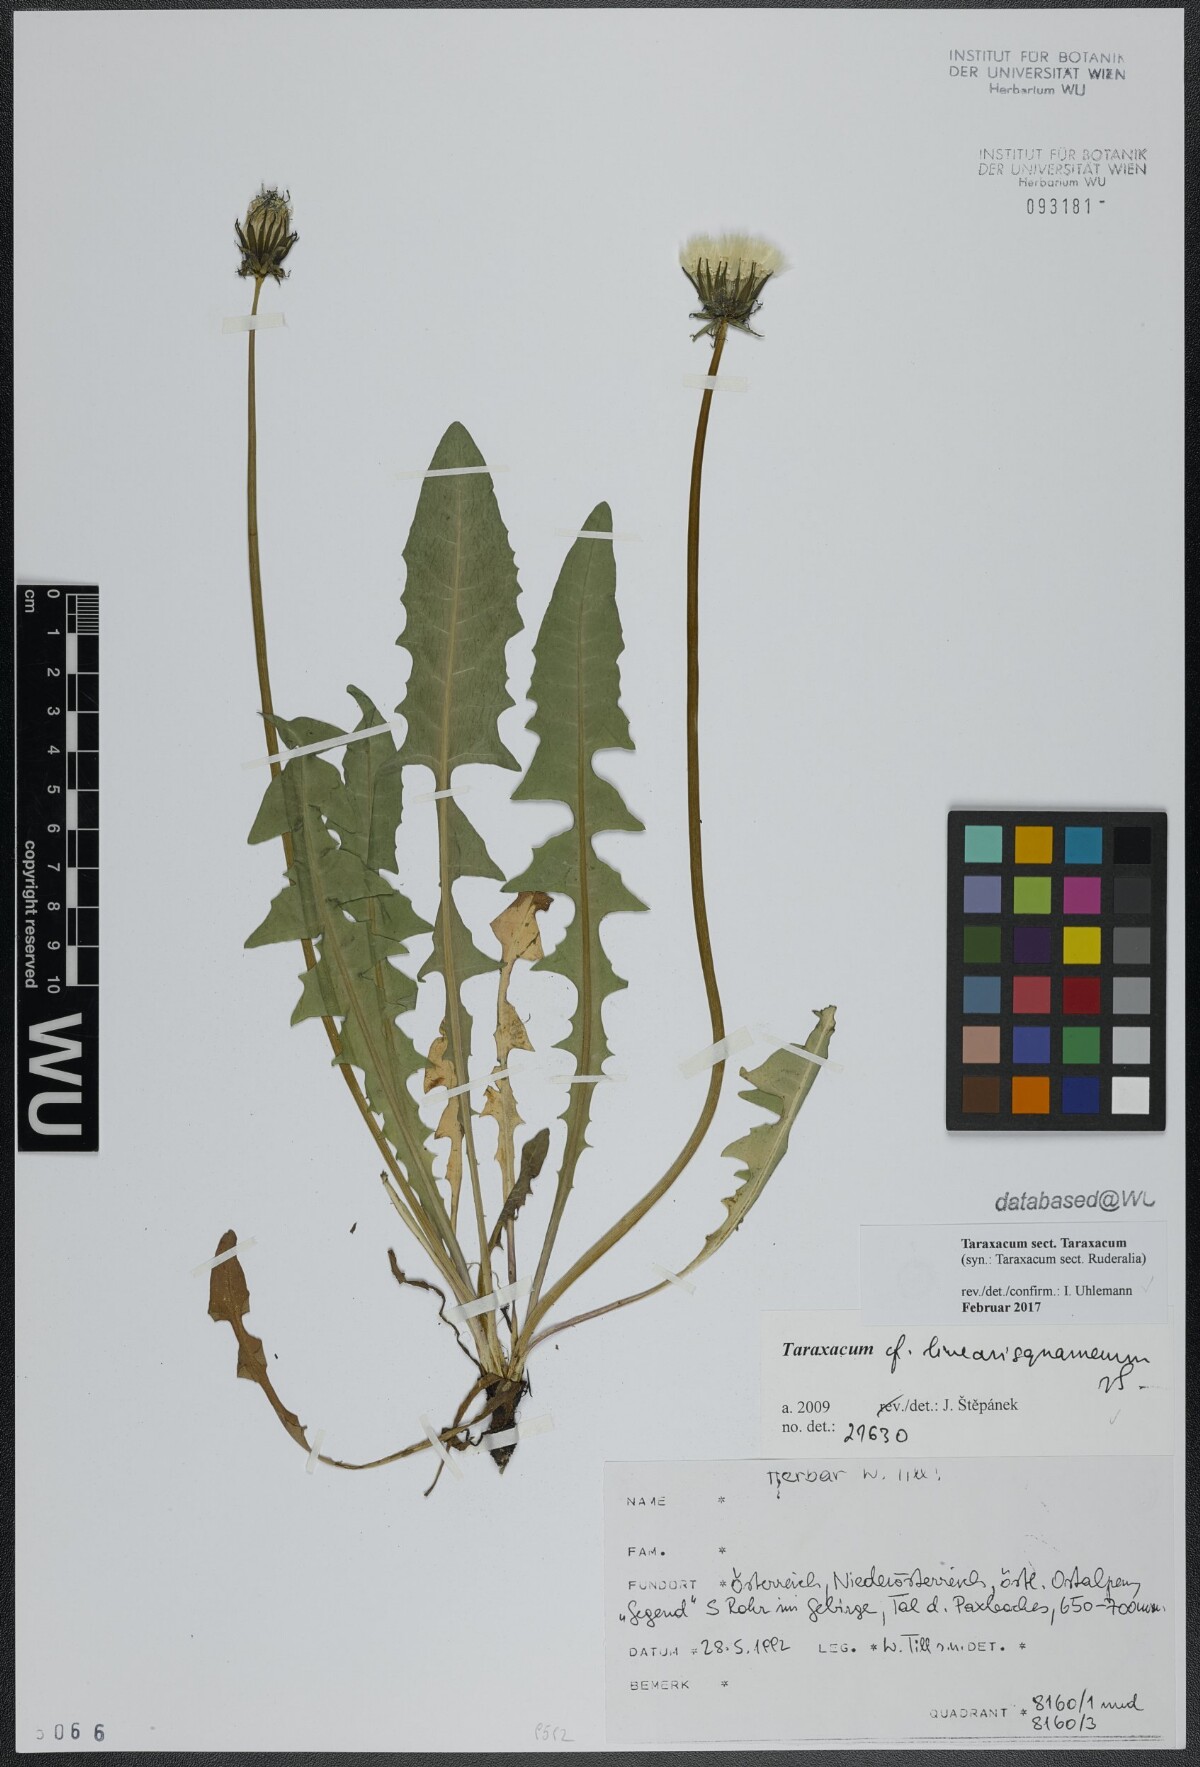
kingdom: Plantae
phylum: Tracheophyta
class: Magnoliopsida
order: Asterales
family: Asteraceae
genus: Taraxacum
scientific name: Taraxacum
